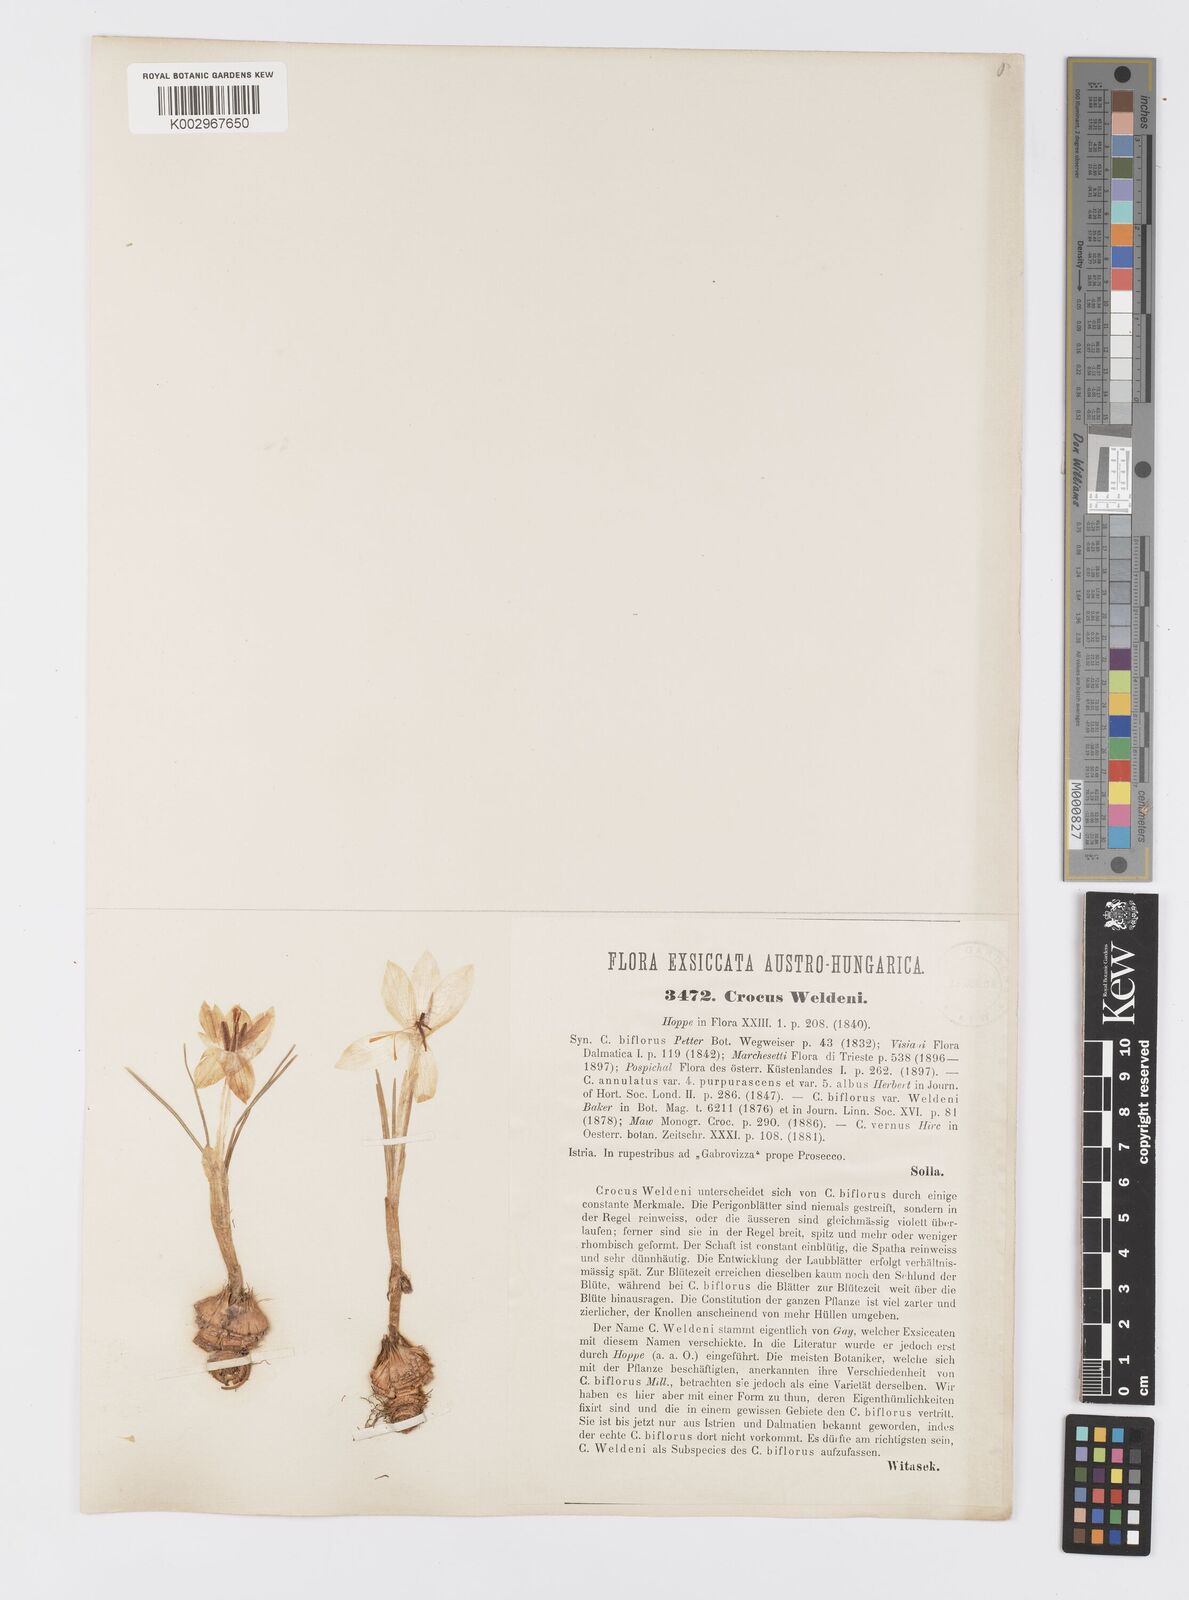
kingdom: Plantae
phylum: Tracheophyta
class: Liliopsida
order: Asparagales
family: Iridaceae
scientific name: Iridaceae
